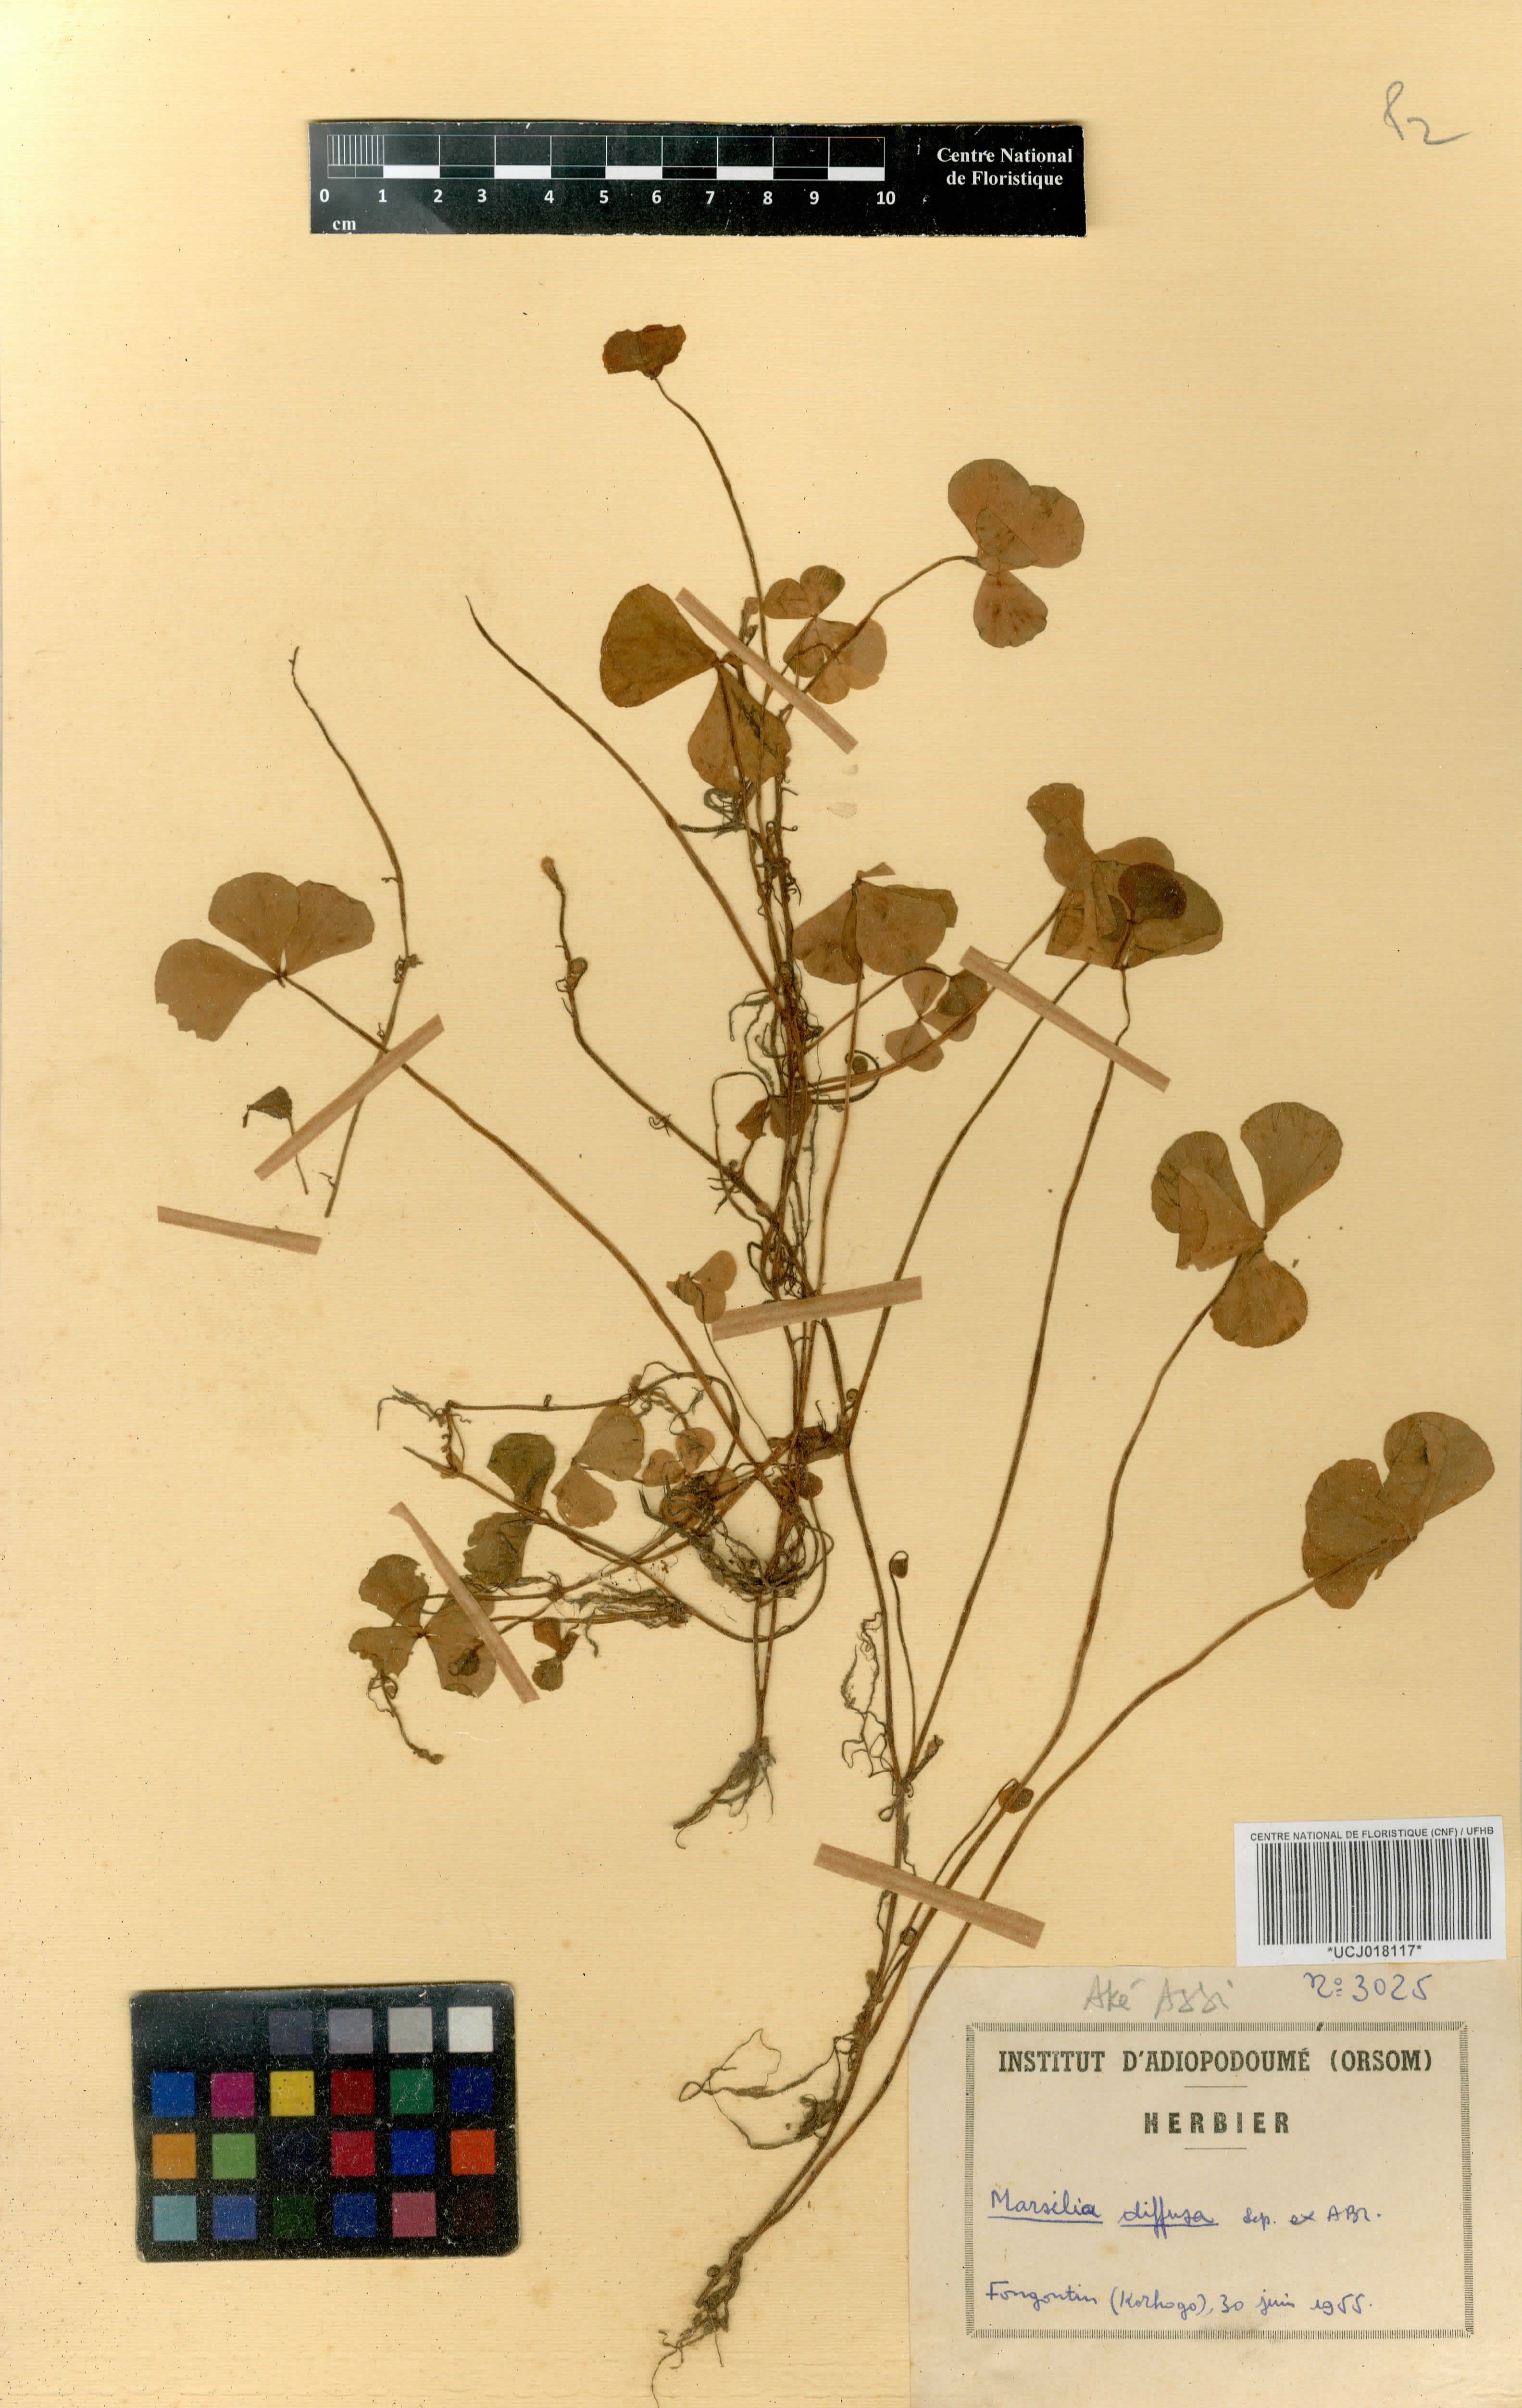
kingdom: Plantae
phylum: Tracheophyta
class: Polypodiopsida
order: Salviniales
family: Marsileaceae
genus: Marsilea
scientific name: Marsilea minuta
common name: Dwarf waterclover
